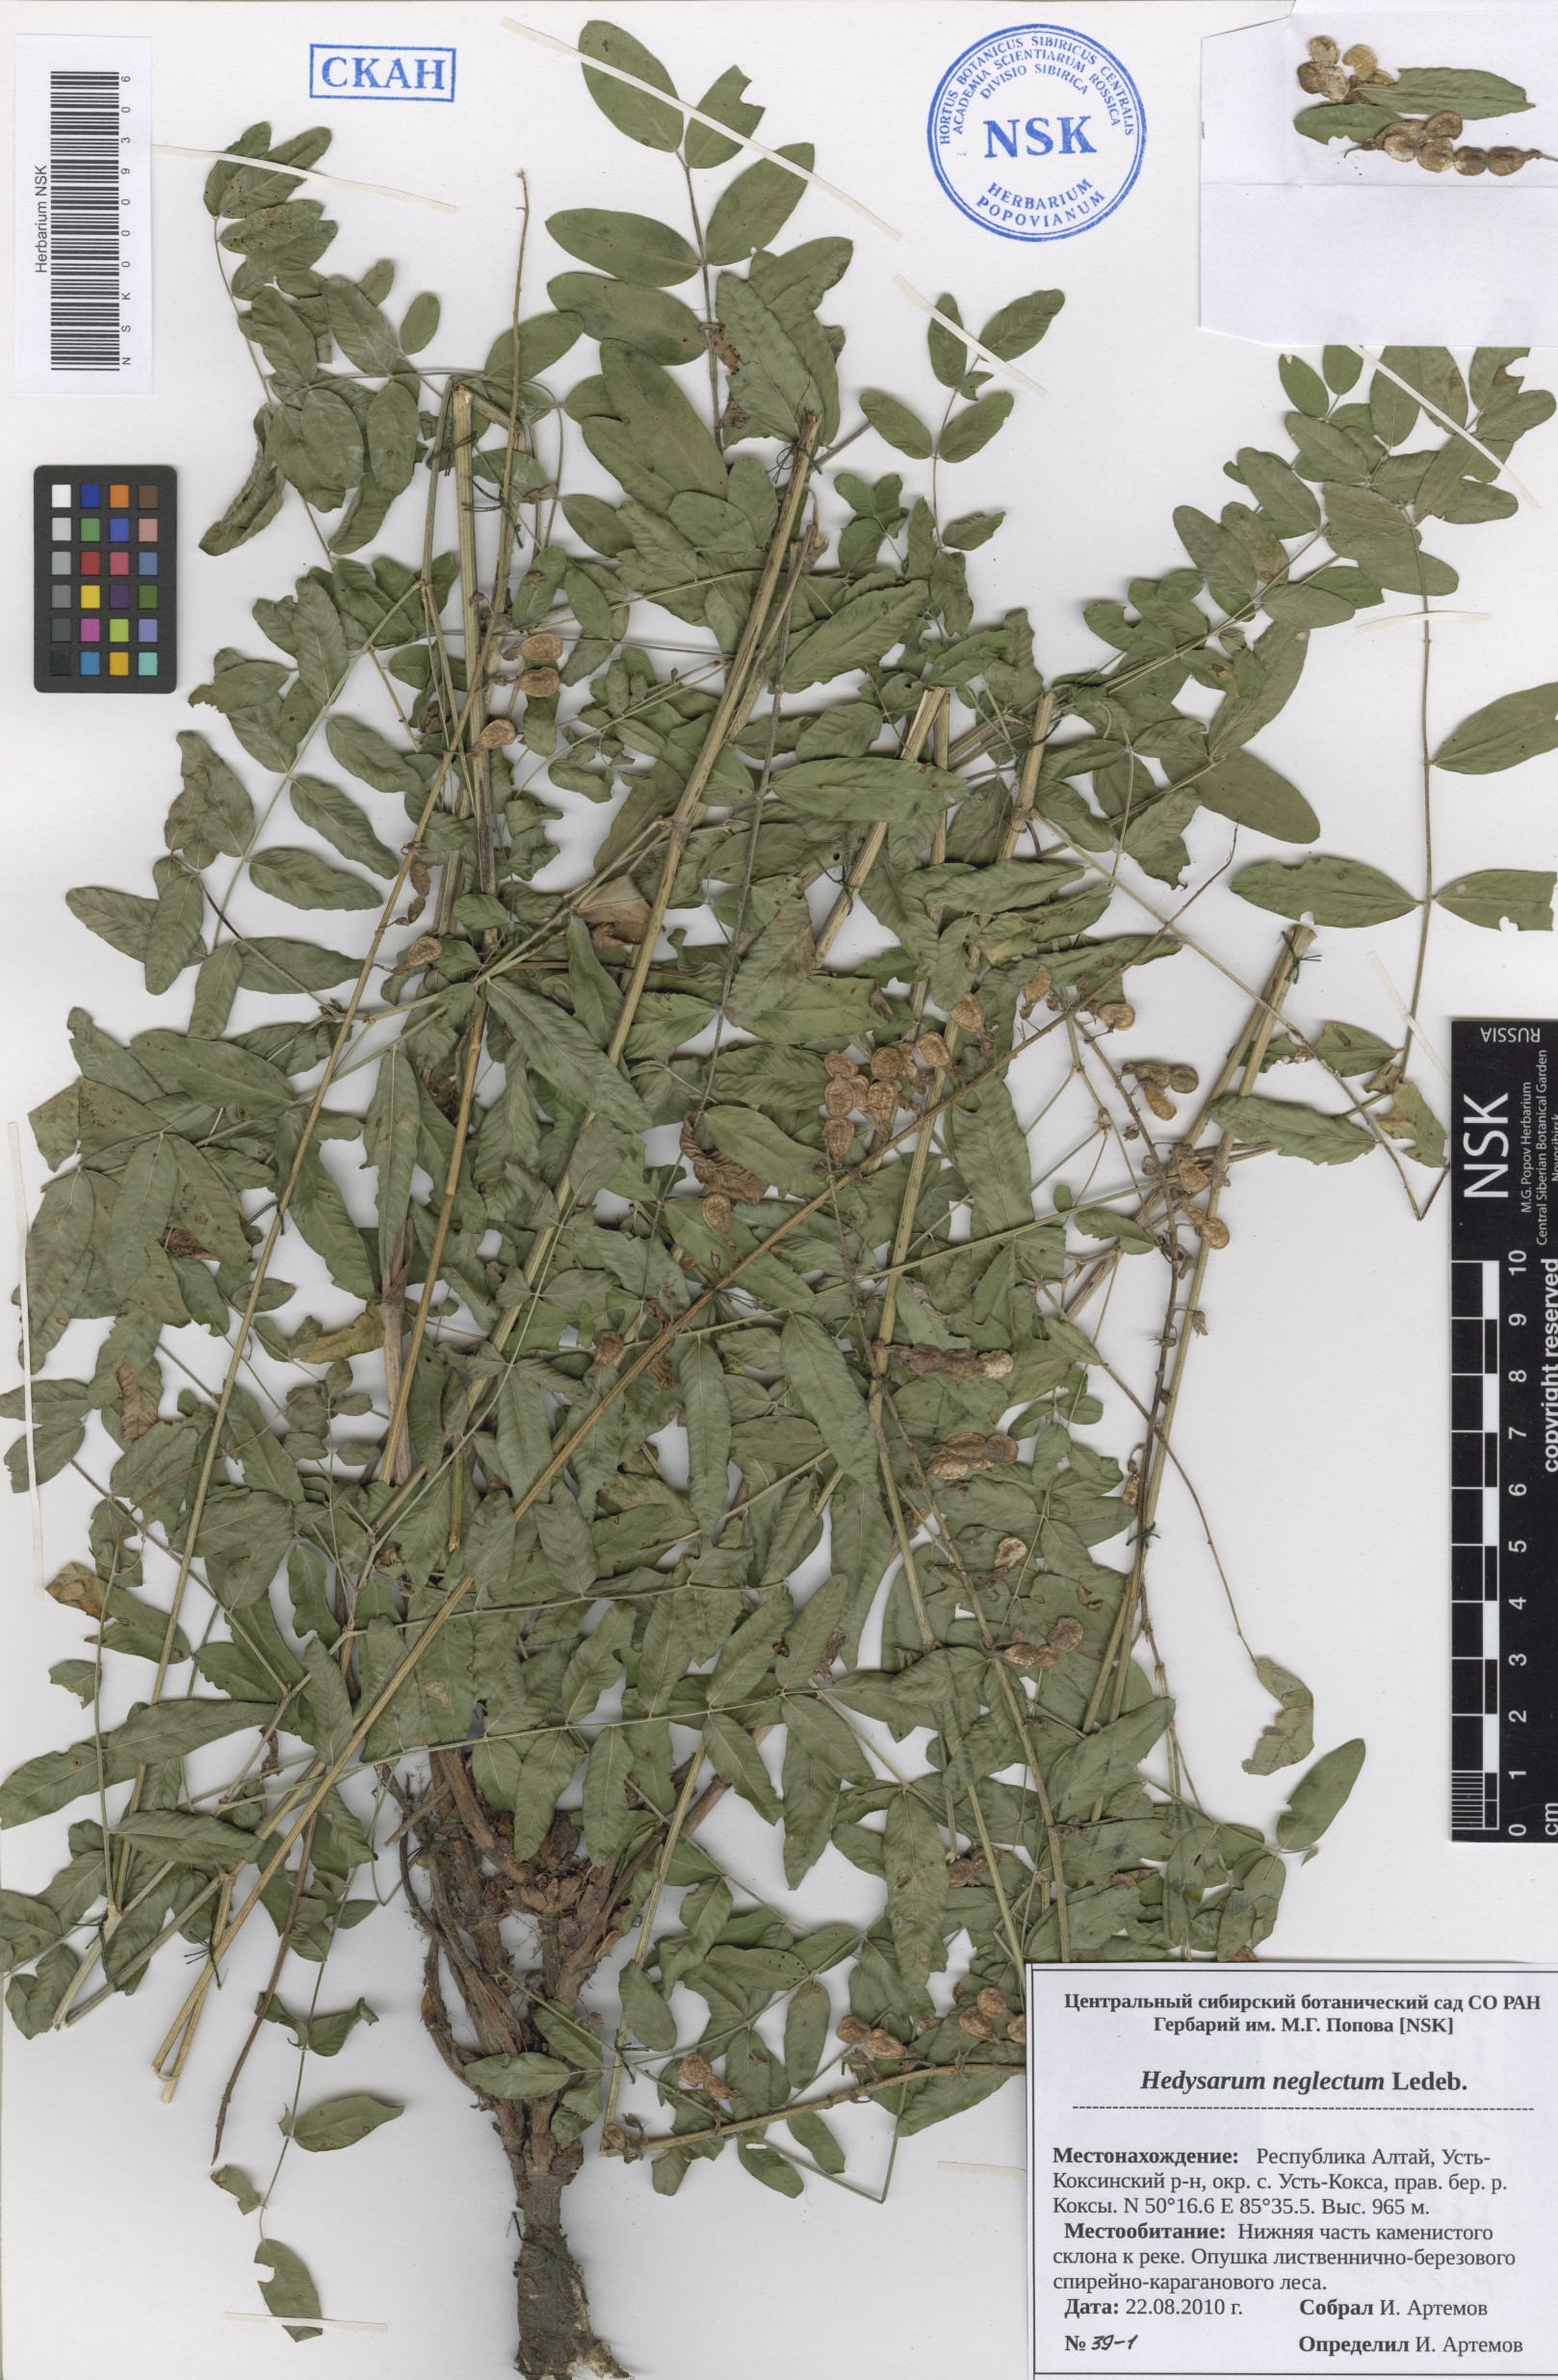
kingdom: Plantae
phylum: Tracheophyta
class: Magnoliopsida
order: Fabales
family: Fabaceae
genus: Hedysarum
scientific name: Hedysarum neglectum
